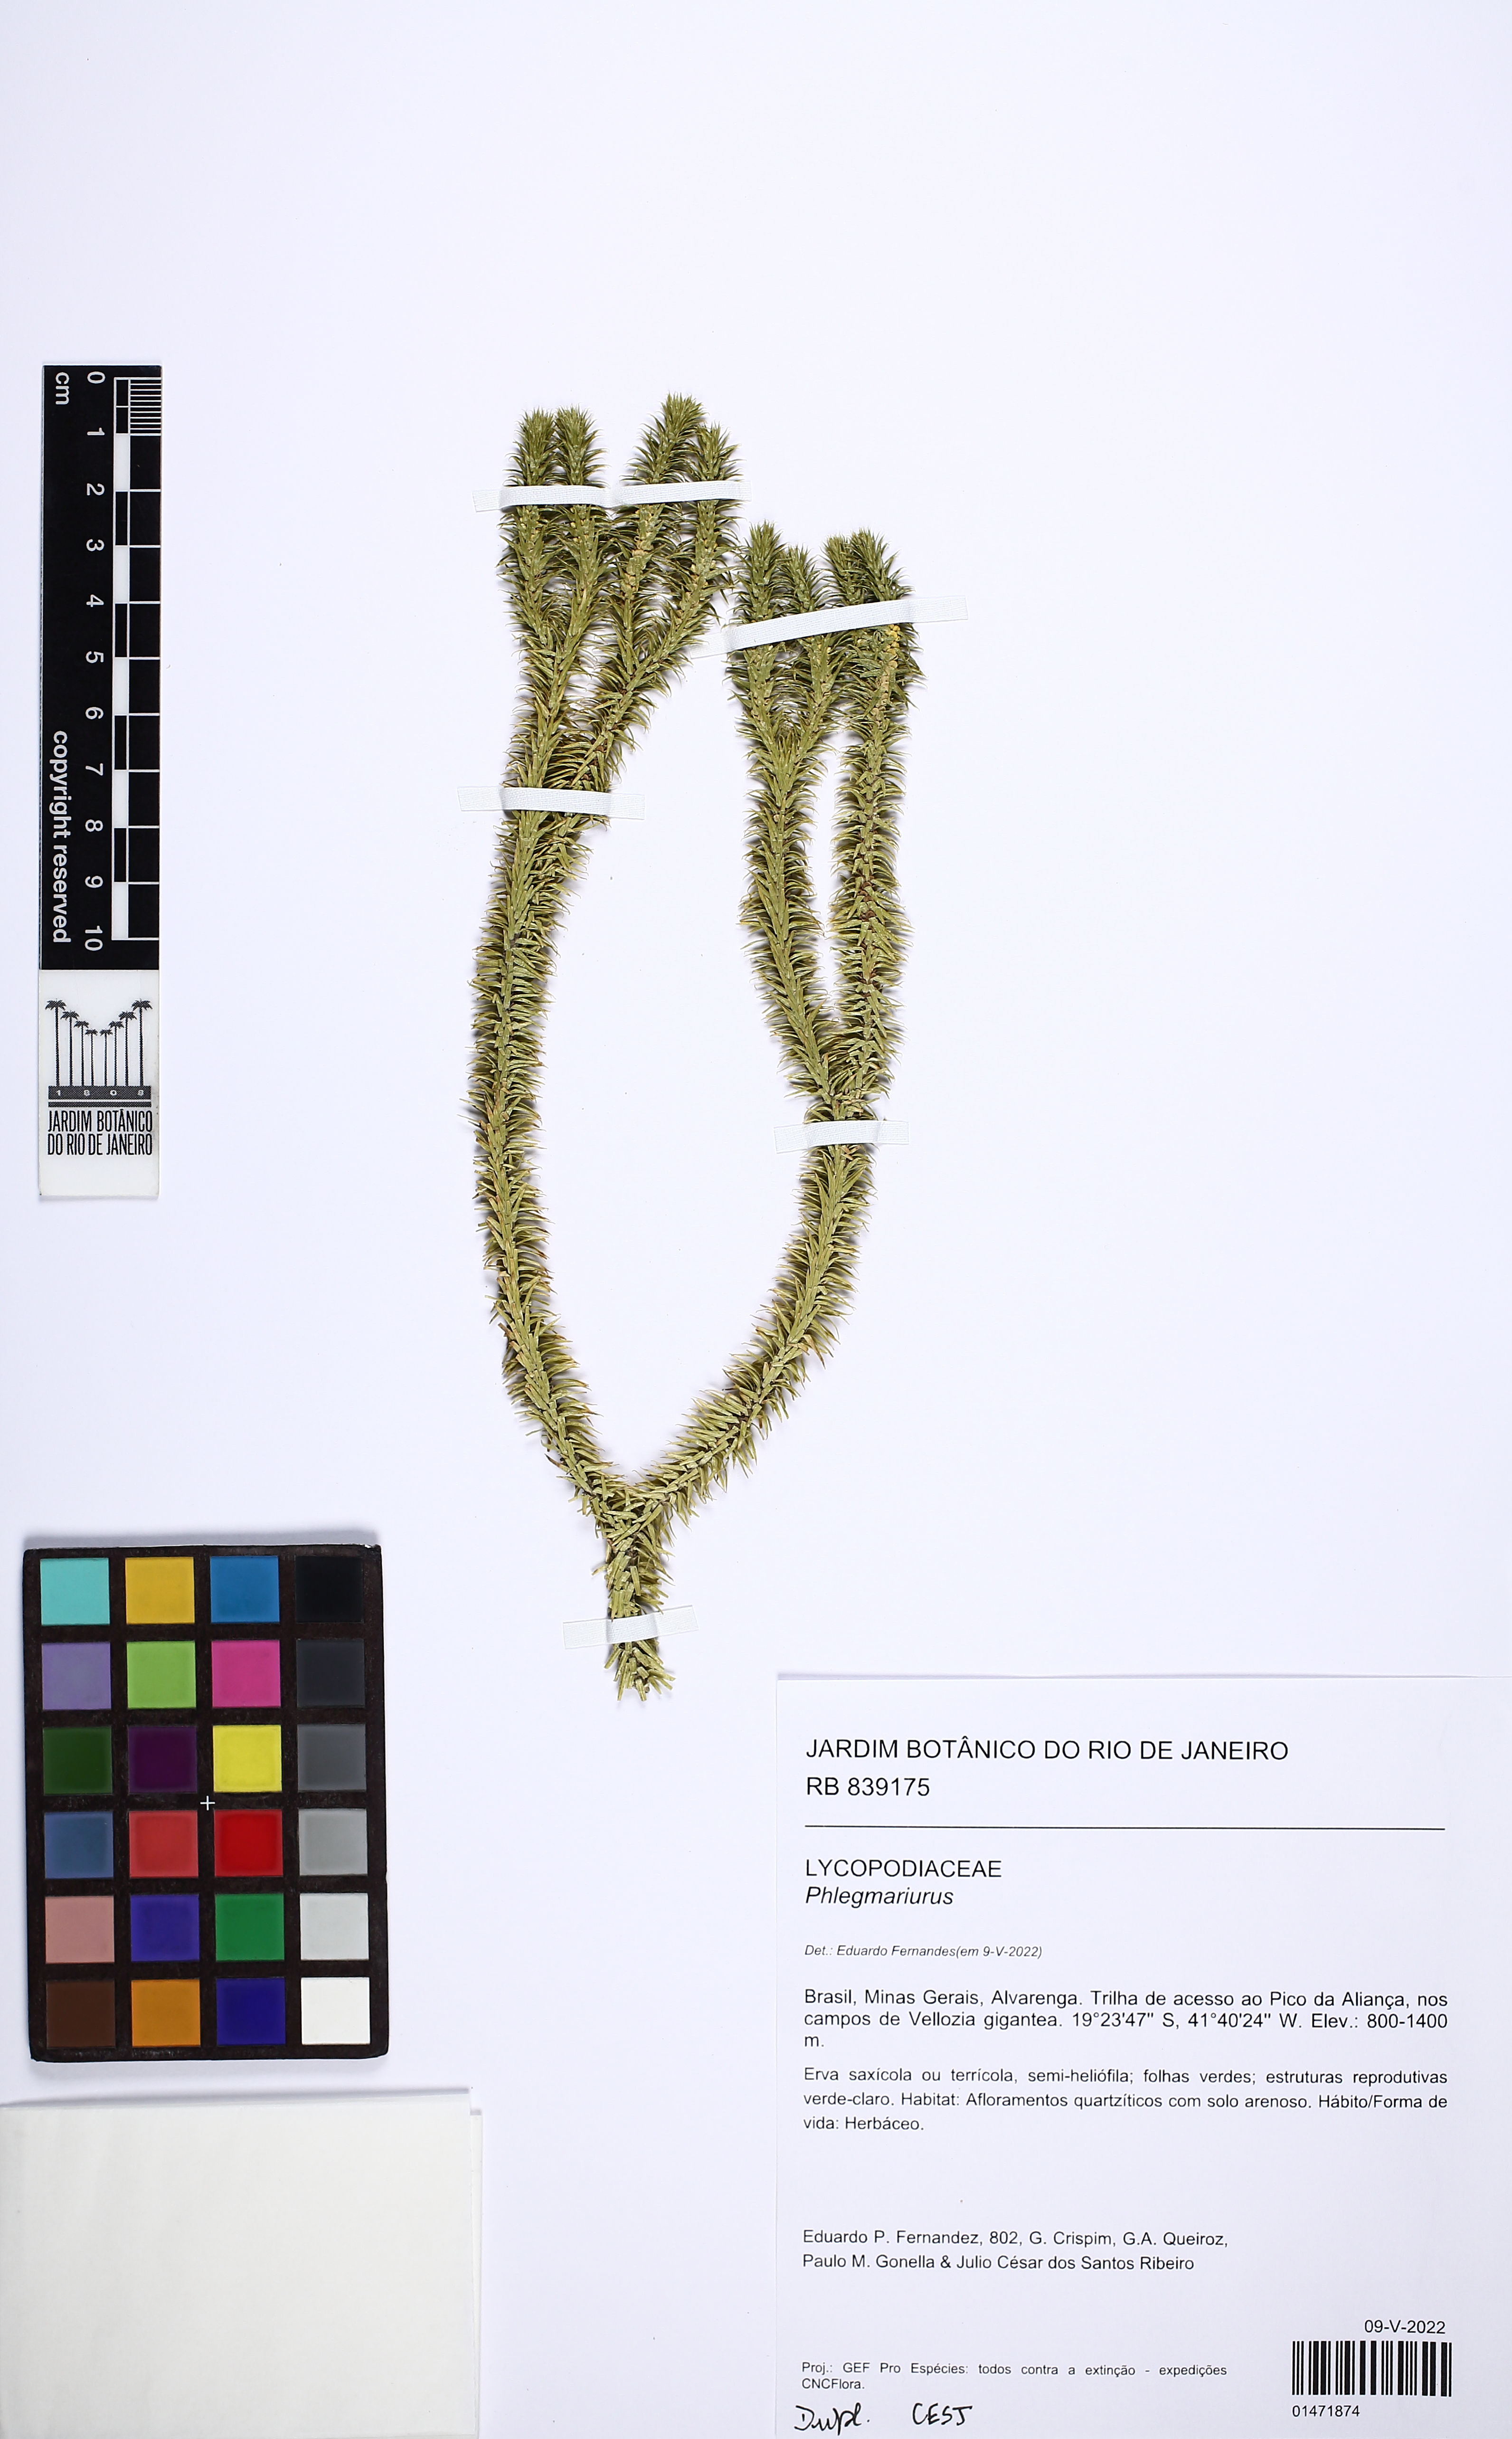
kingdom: Plantae
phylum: Tracheophyta
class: Lycopodiopsida
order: Lycopodiales
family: Lycopodiaceae
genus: Phlegmariurus
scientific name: Phlegmariurus
